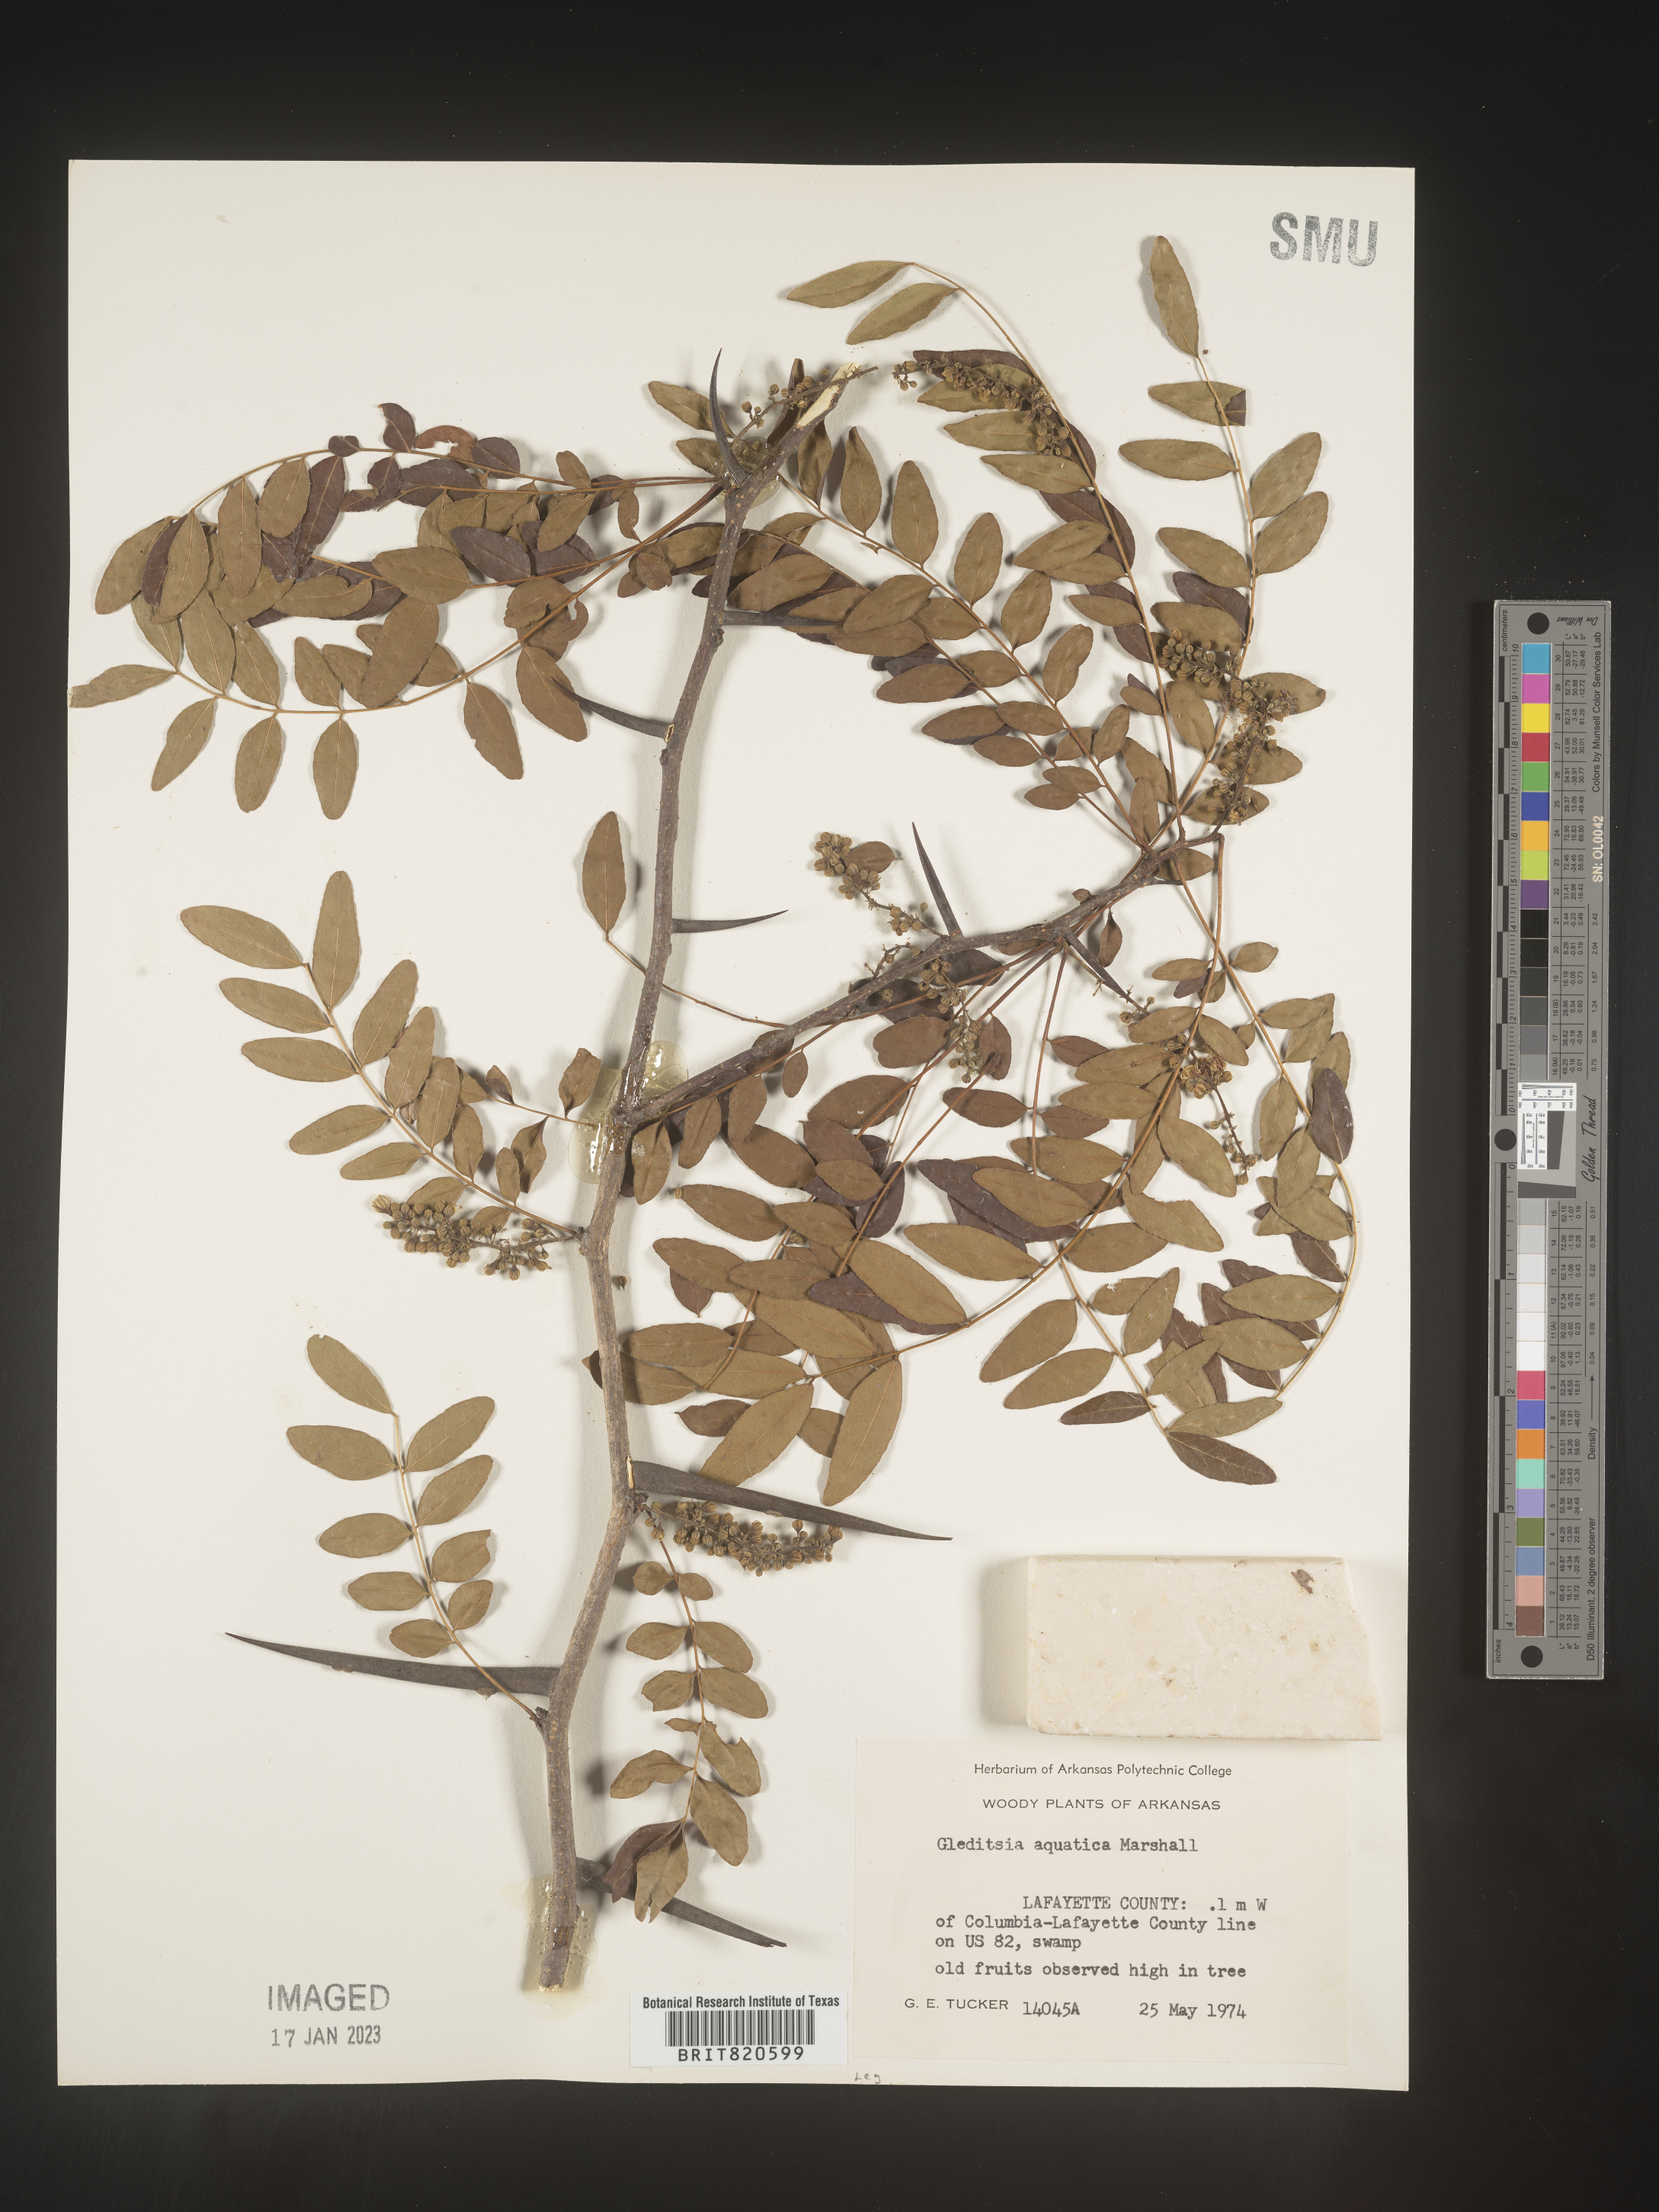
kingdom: Plantae
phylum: Tracheophyta
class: Magnoliopsida
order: Fabales
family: Fabaceae
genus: Gleditsia
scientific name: Gleditsia aquatica
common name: Swamp-locust
